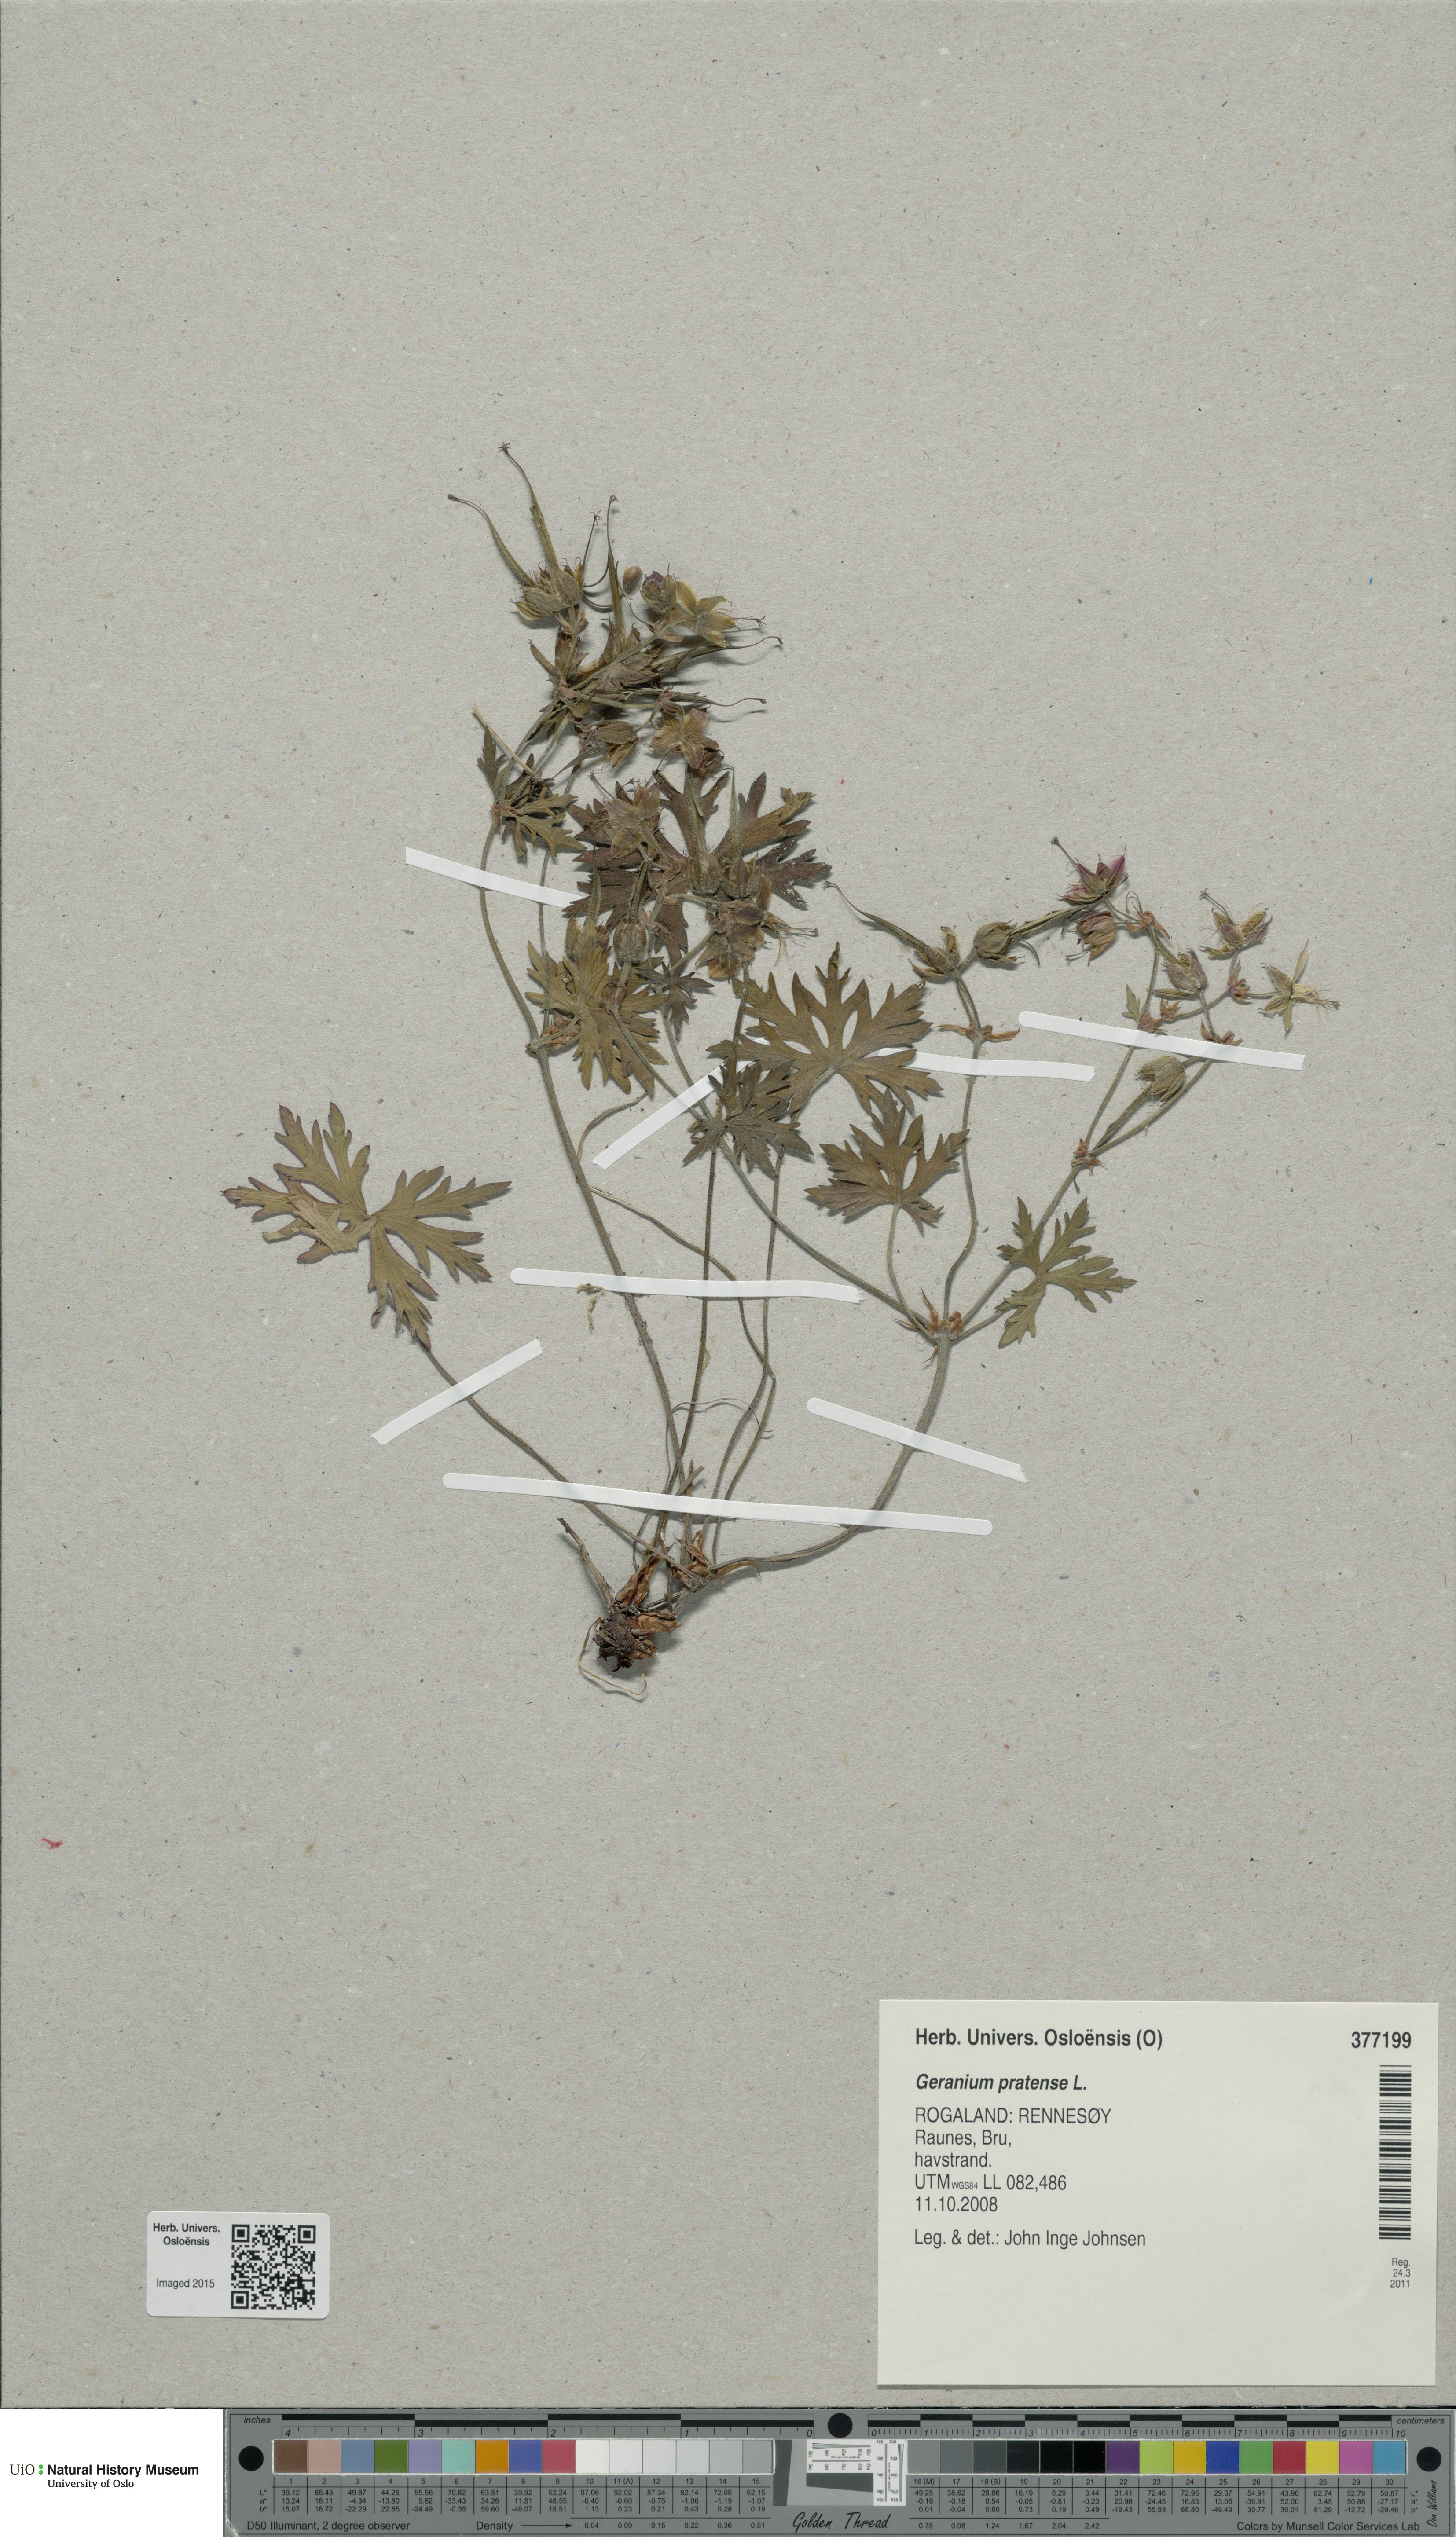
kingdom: Plantae
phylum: Tracheophyta
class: Magnoliopsida
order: Geraniales
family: Geraniaceae
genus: Geranium
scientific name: Geranium pratense
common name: Meadow crane's-bill
